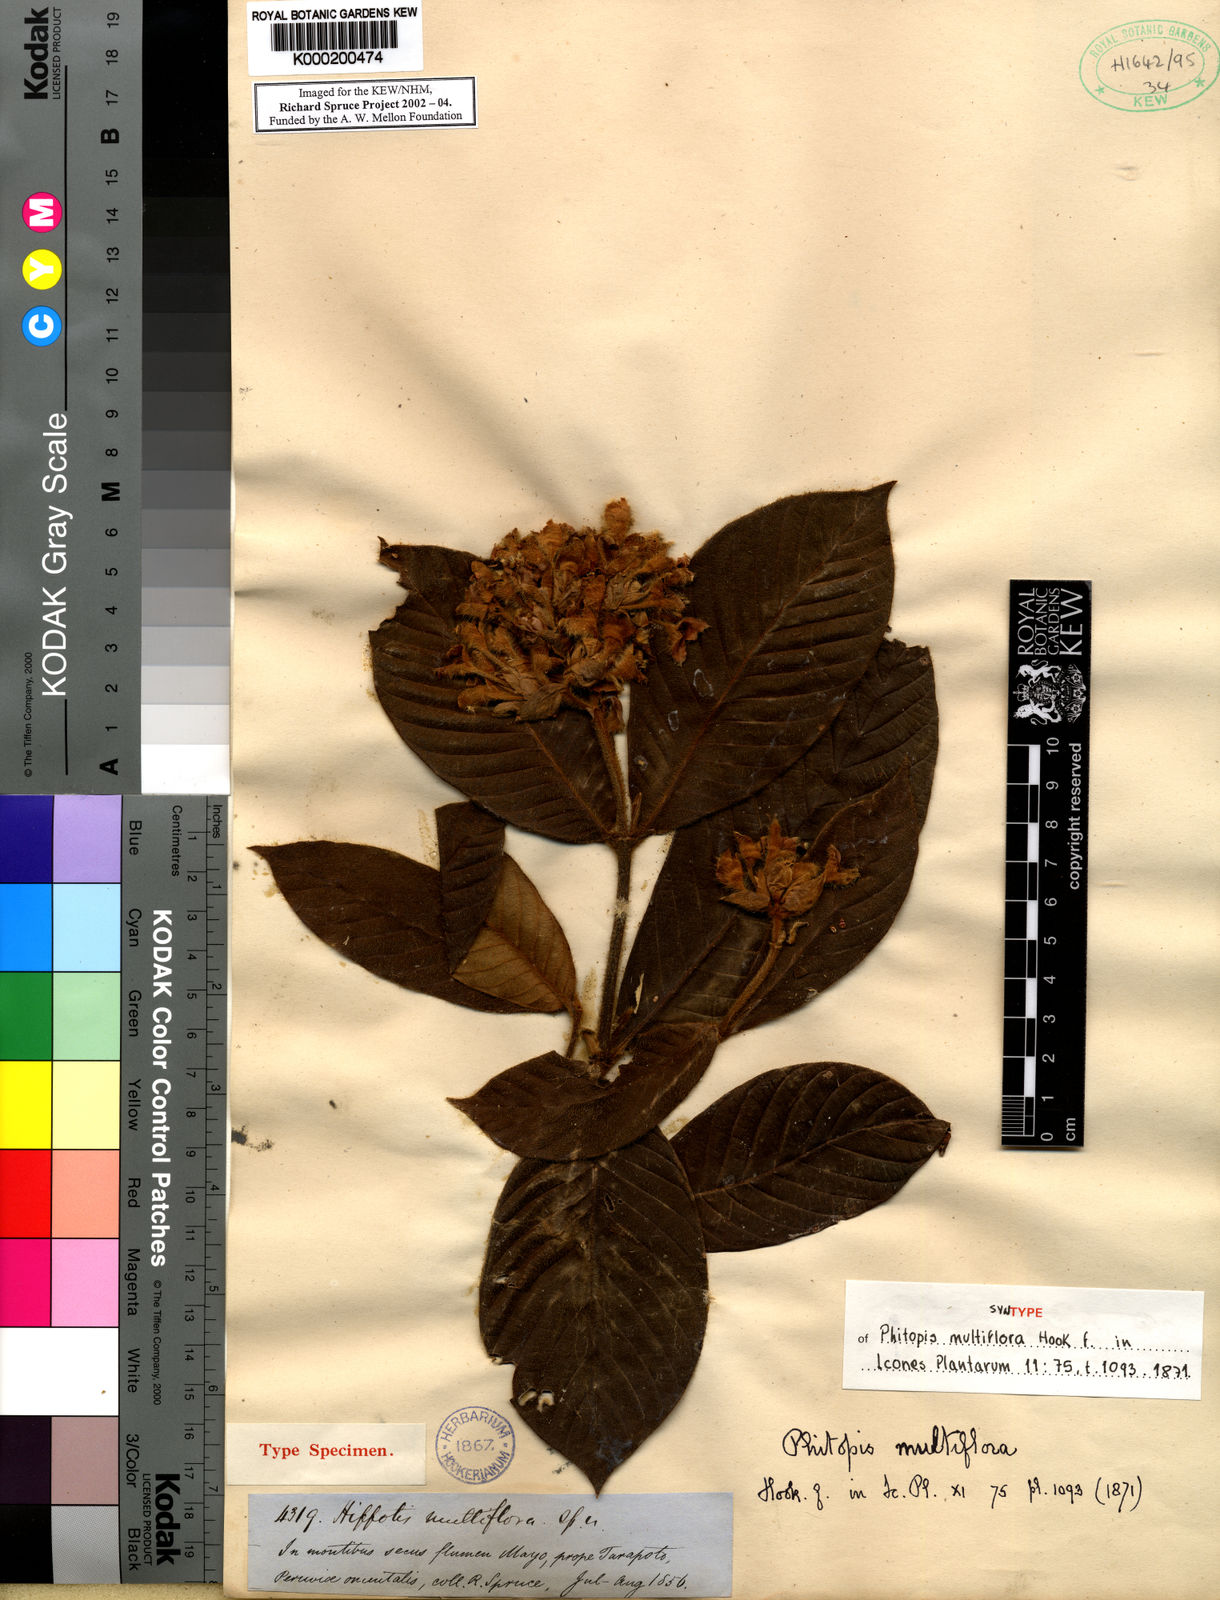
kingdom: Plantae
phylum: Tracheophyta
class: Magnoliopsida
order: Gentianales
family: Rubiaceae
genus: Schizocalyx
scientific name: Schizocalyx multiflorus
